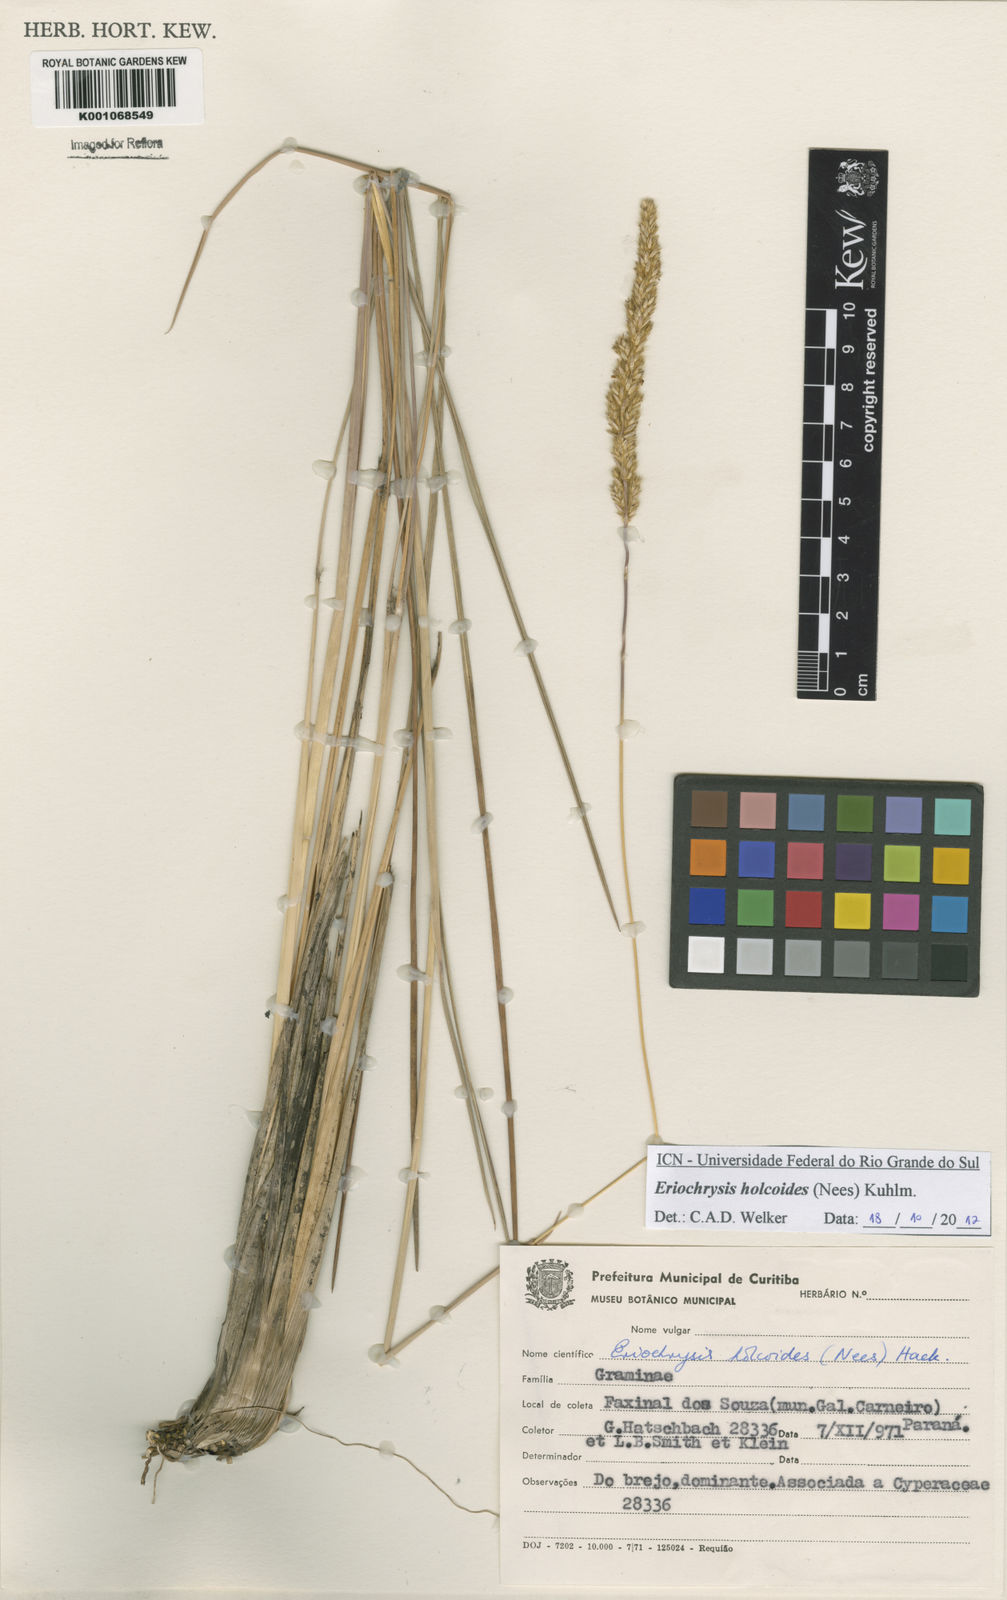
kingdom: Plantae
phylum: Tracheophyta
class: Liliopsida
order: Poales
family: Poaceae
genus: Eriochrysis
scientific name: Eriochrysis holcoides
